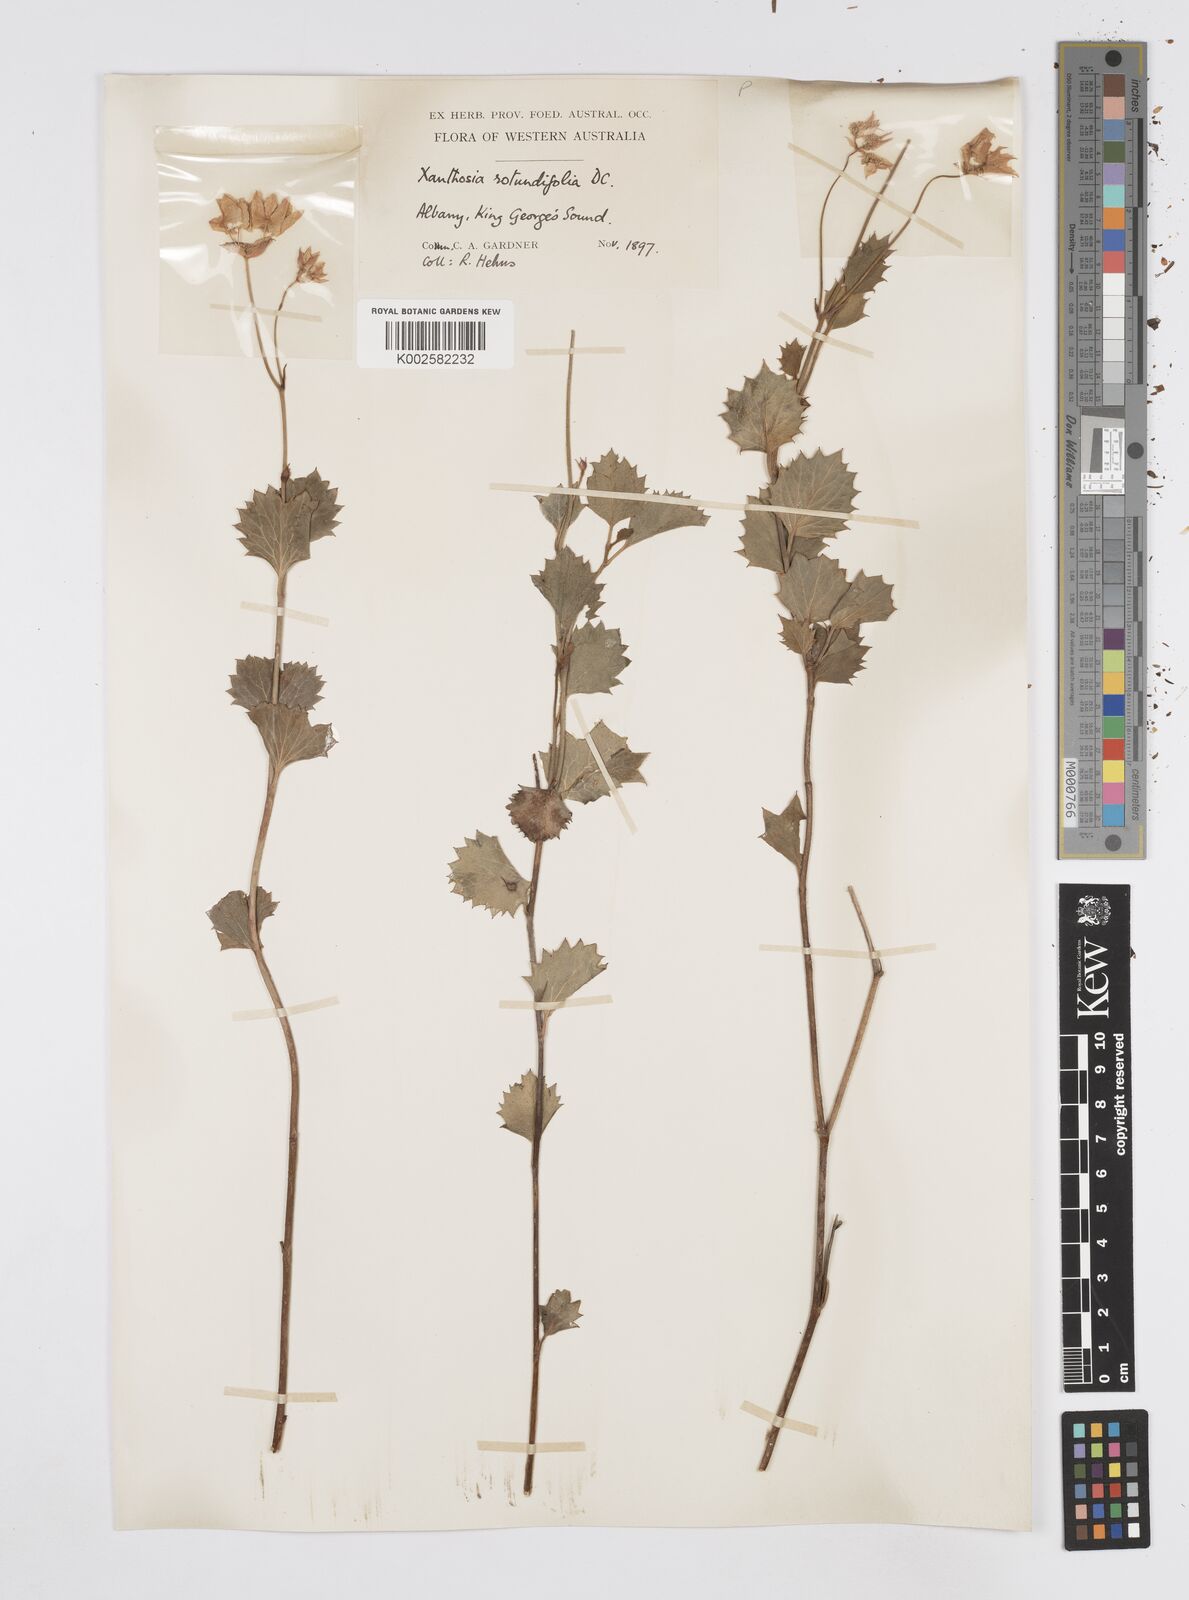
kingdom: Plantae
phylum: Tracheophyta
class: Magnoliopsida
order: Apiales
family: Apiaceae
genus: Xanthosia
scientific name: Xanthosia rotundifolia
